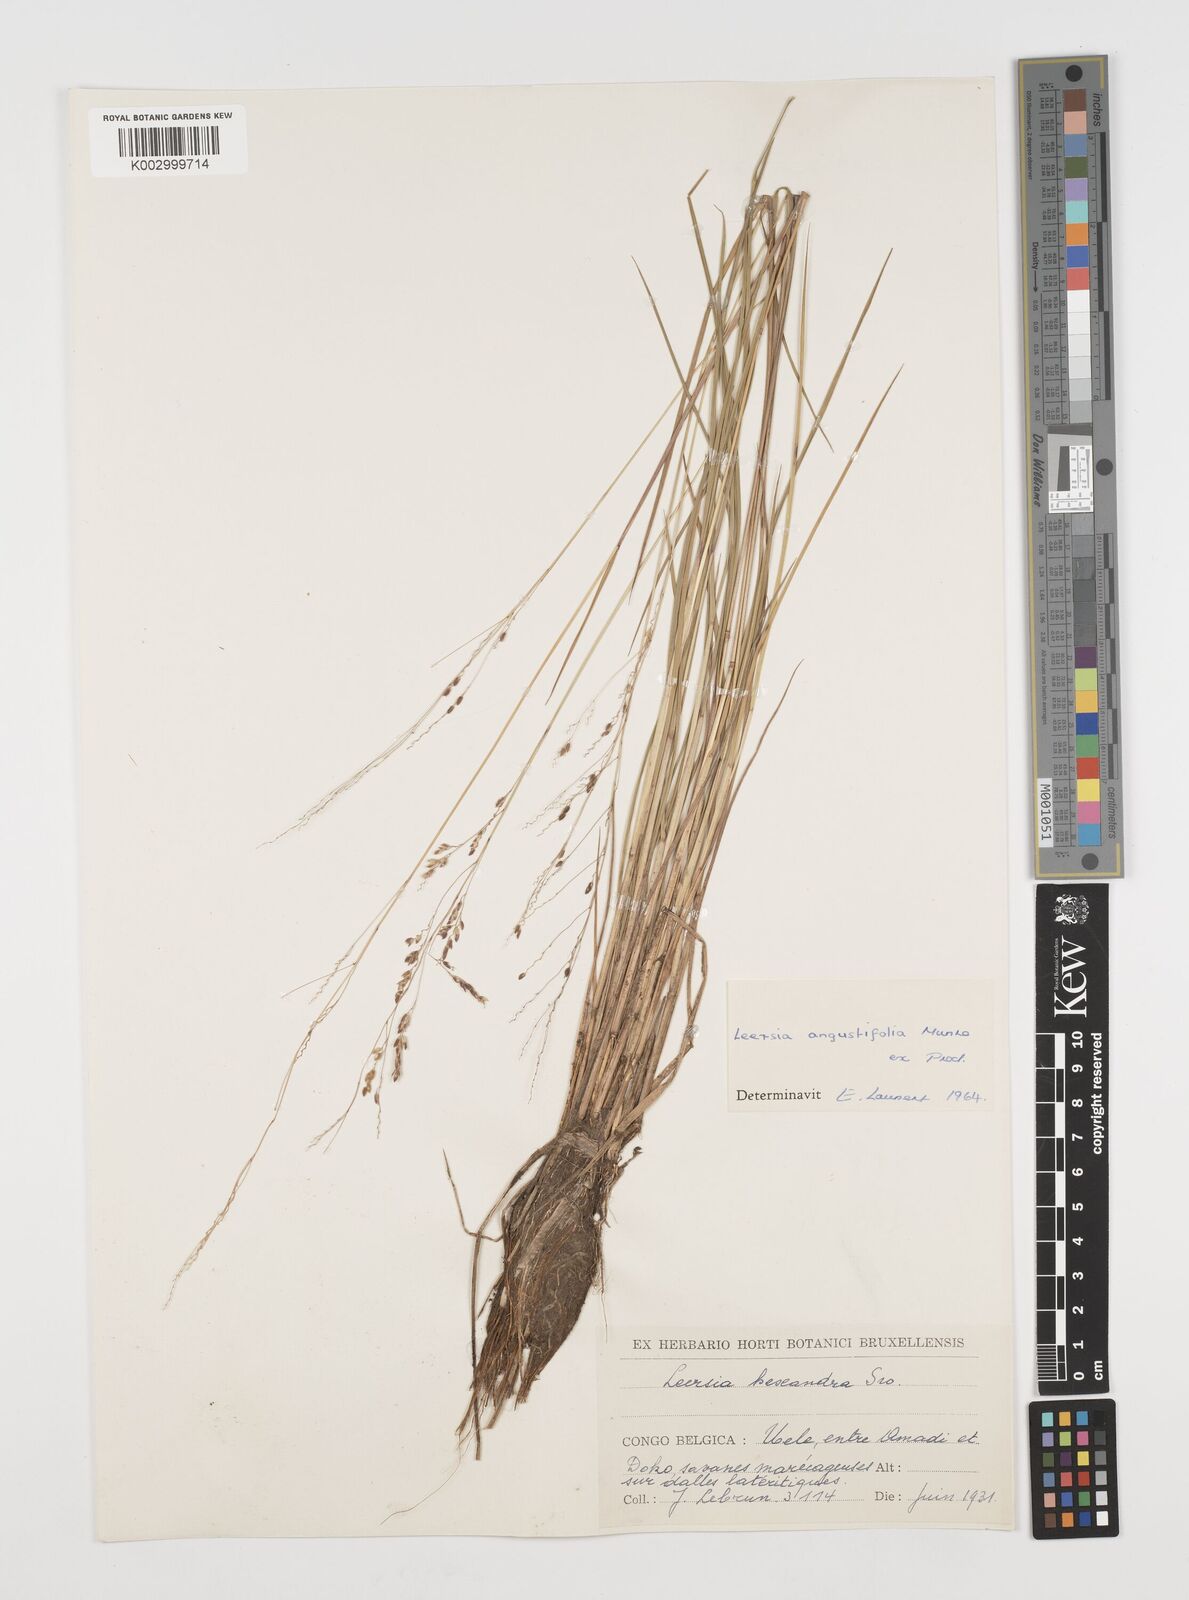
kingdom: Plantae
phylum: Tracheophyta
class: Liliopsida
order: Poales
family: Poaceae
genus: Leersia
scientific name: Leersia angustifolia
